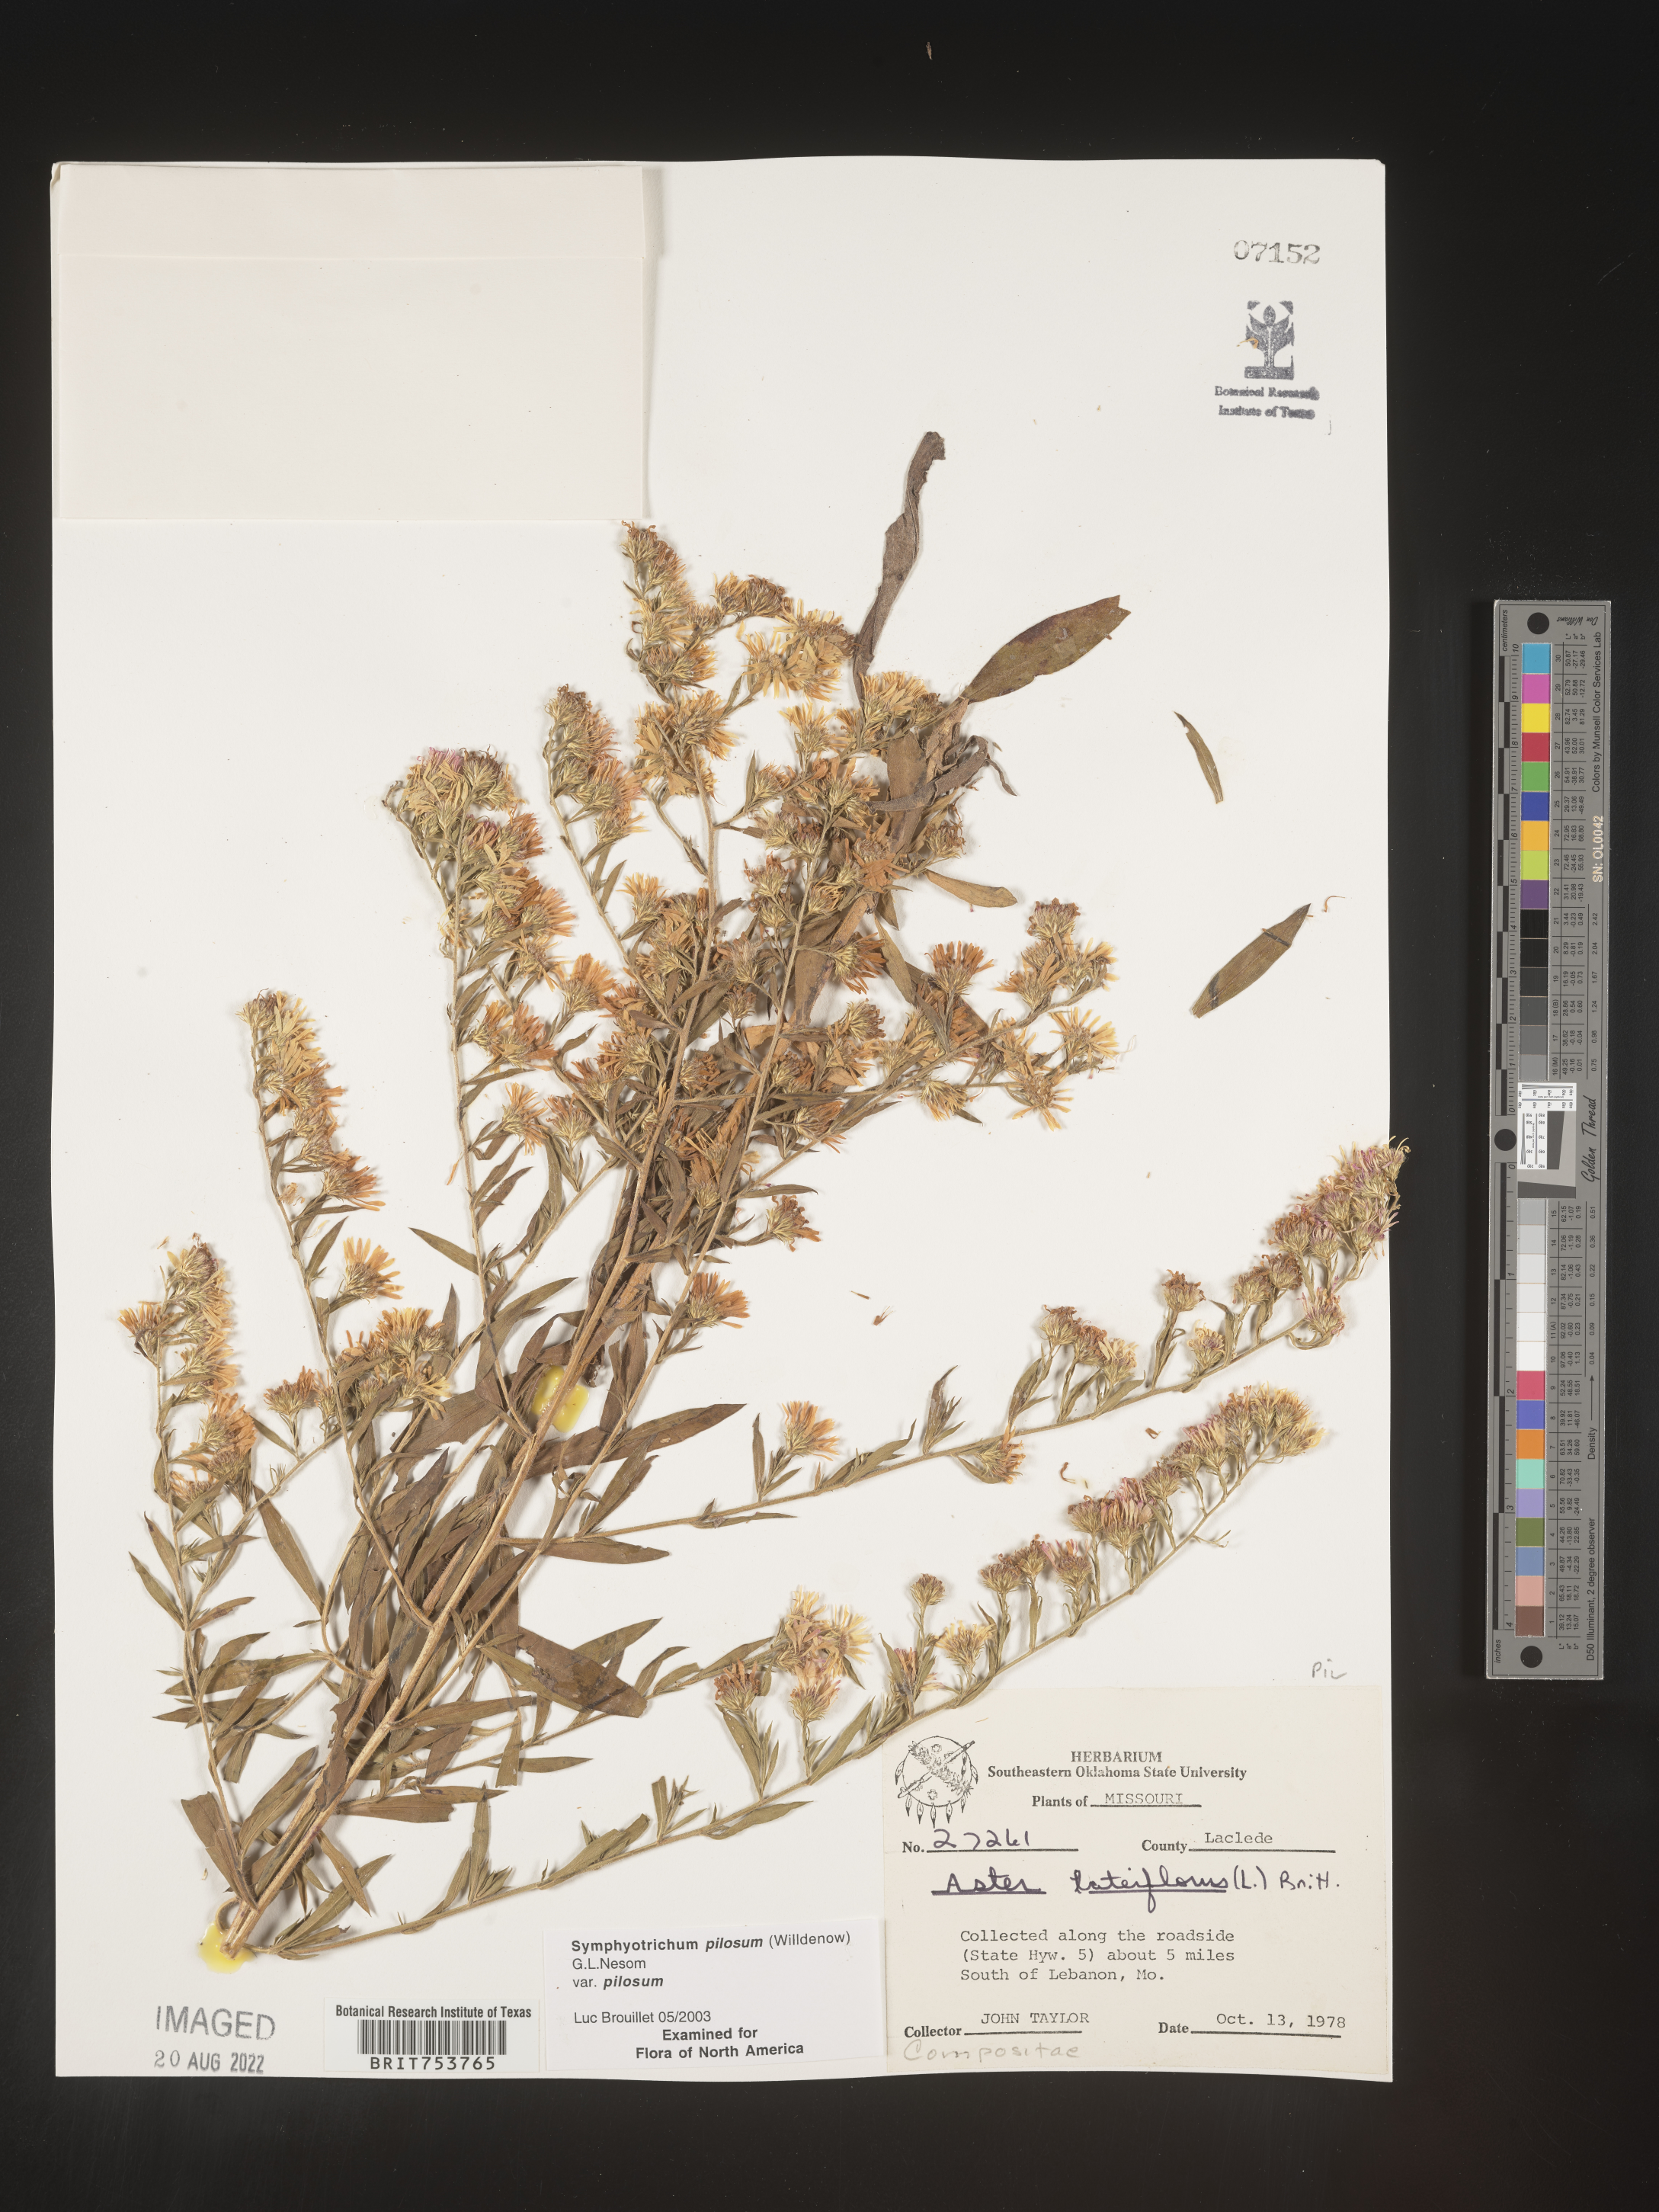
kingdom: Plantae
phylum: Tracheophyta
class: Magnoliopsida
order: Asterales
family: Asteraceae
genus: Symphyotrichum
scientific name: Symphyotrichum pilosum
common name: Awl aster
